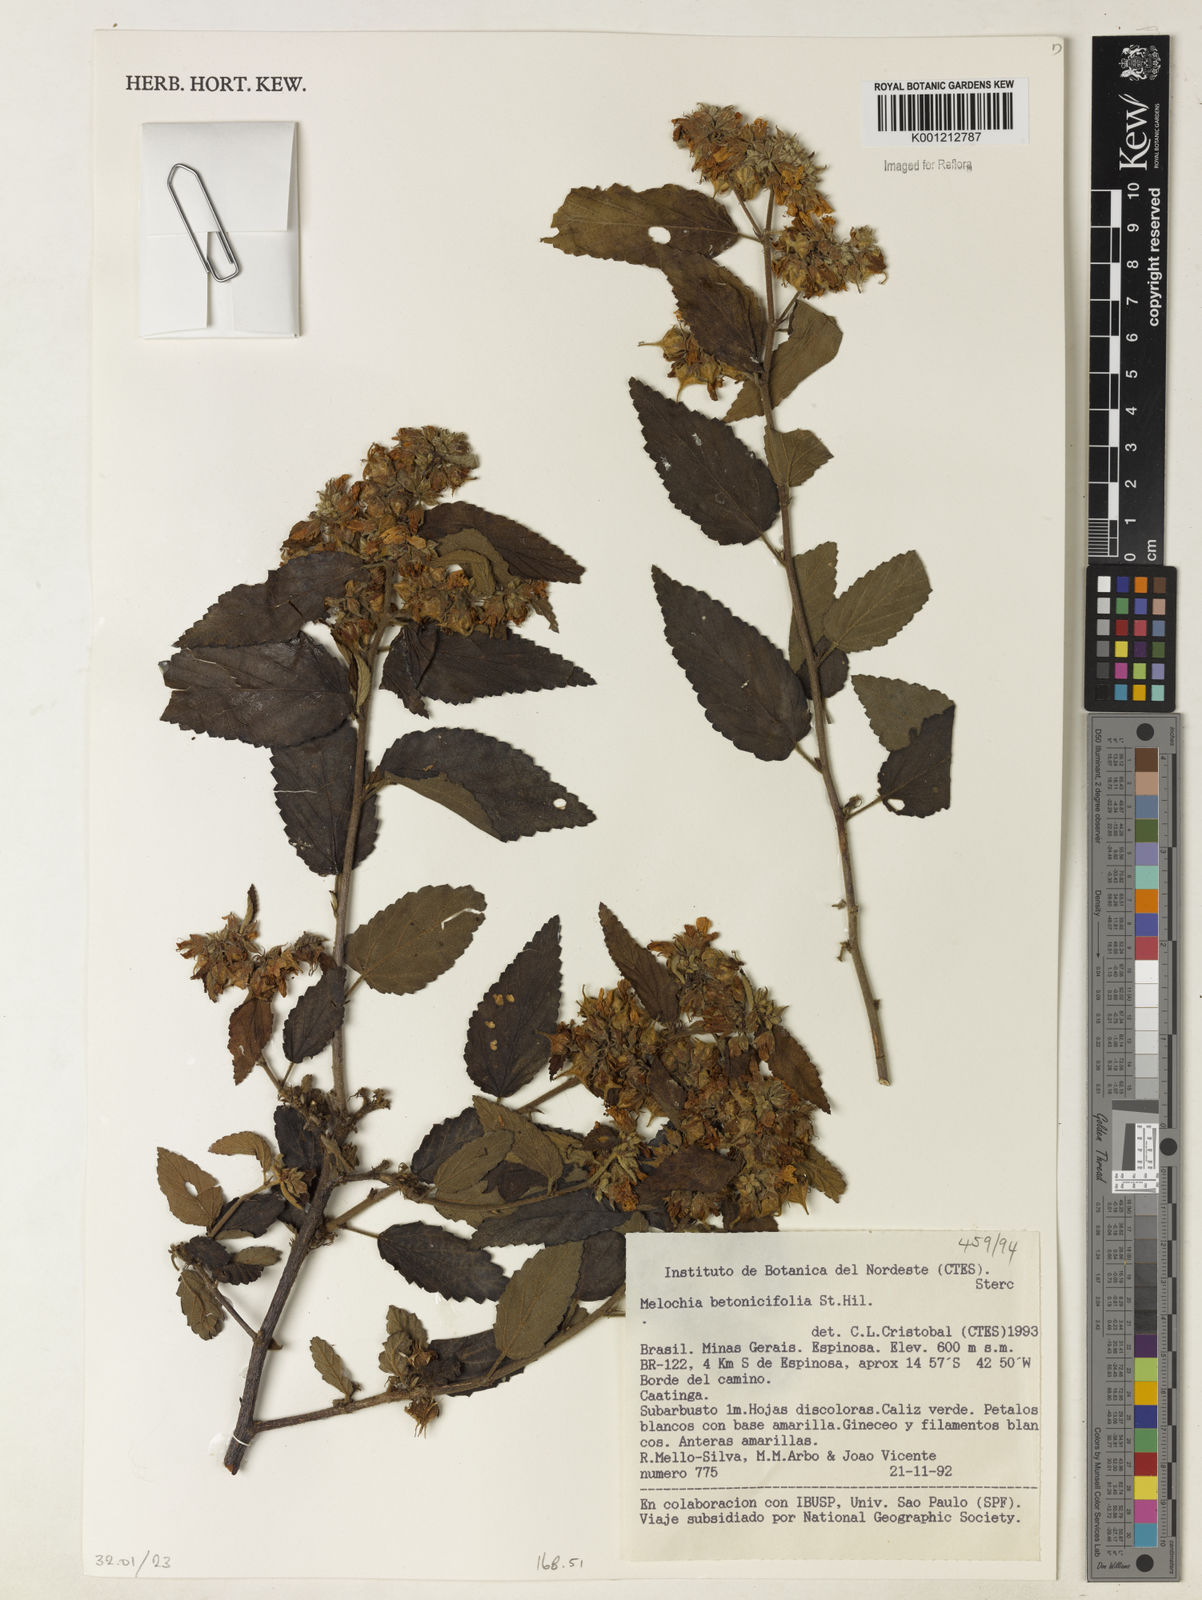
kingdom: Plantae
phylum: Tracheophyta
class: Magnoliopsida
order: Malvales
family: Malvaceae
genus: Melochia
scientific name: Melochia betonicifolia
